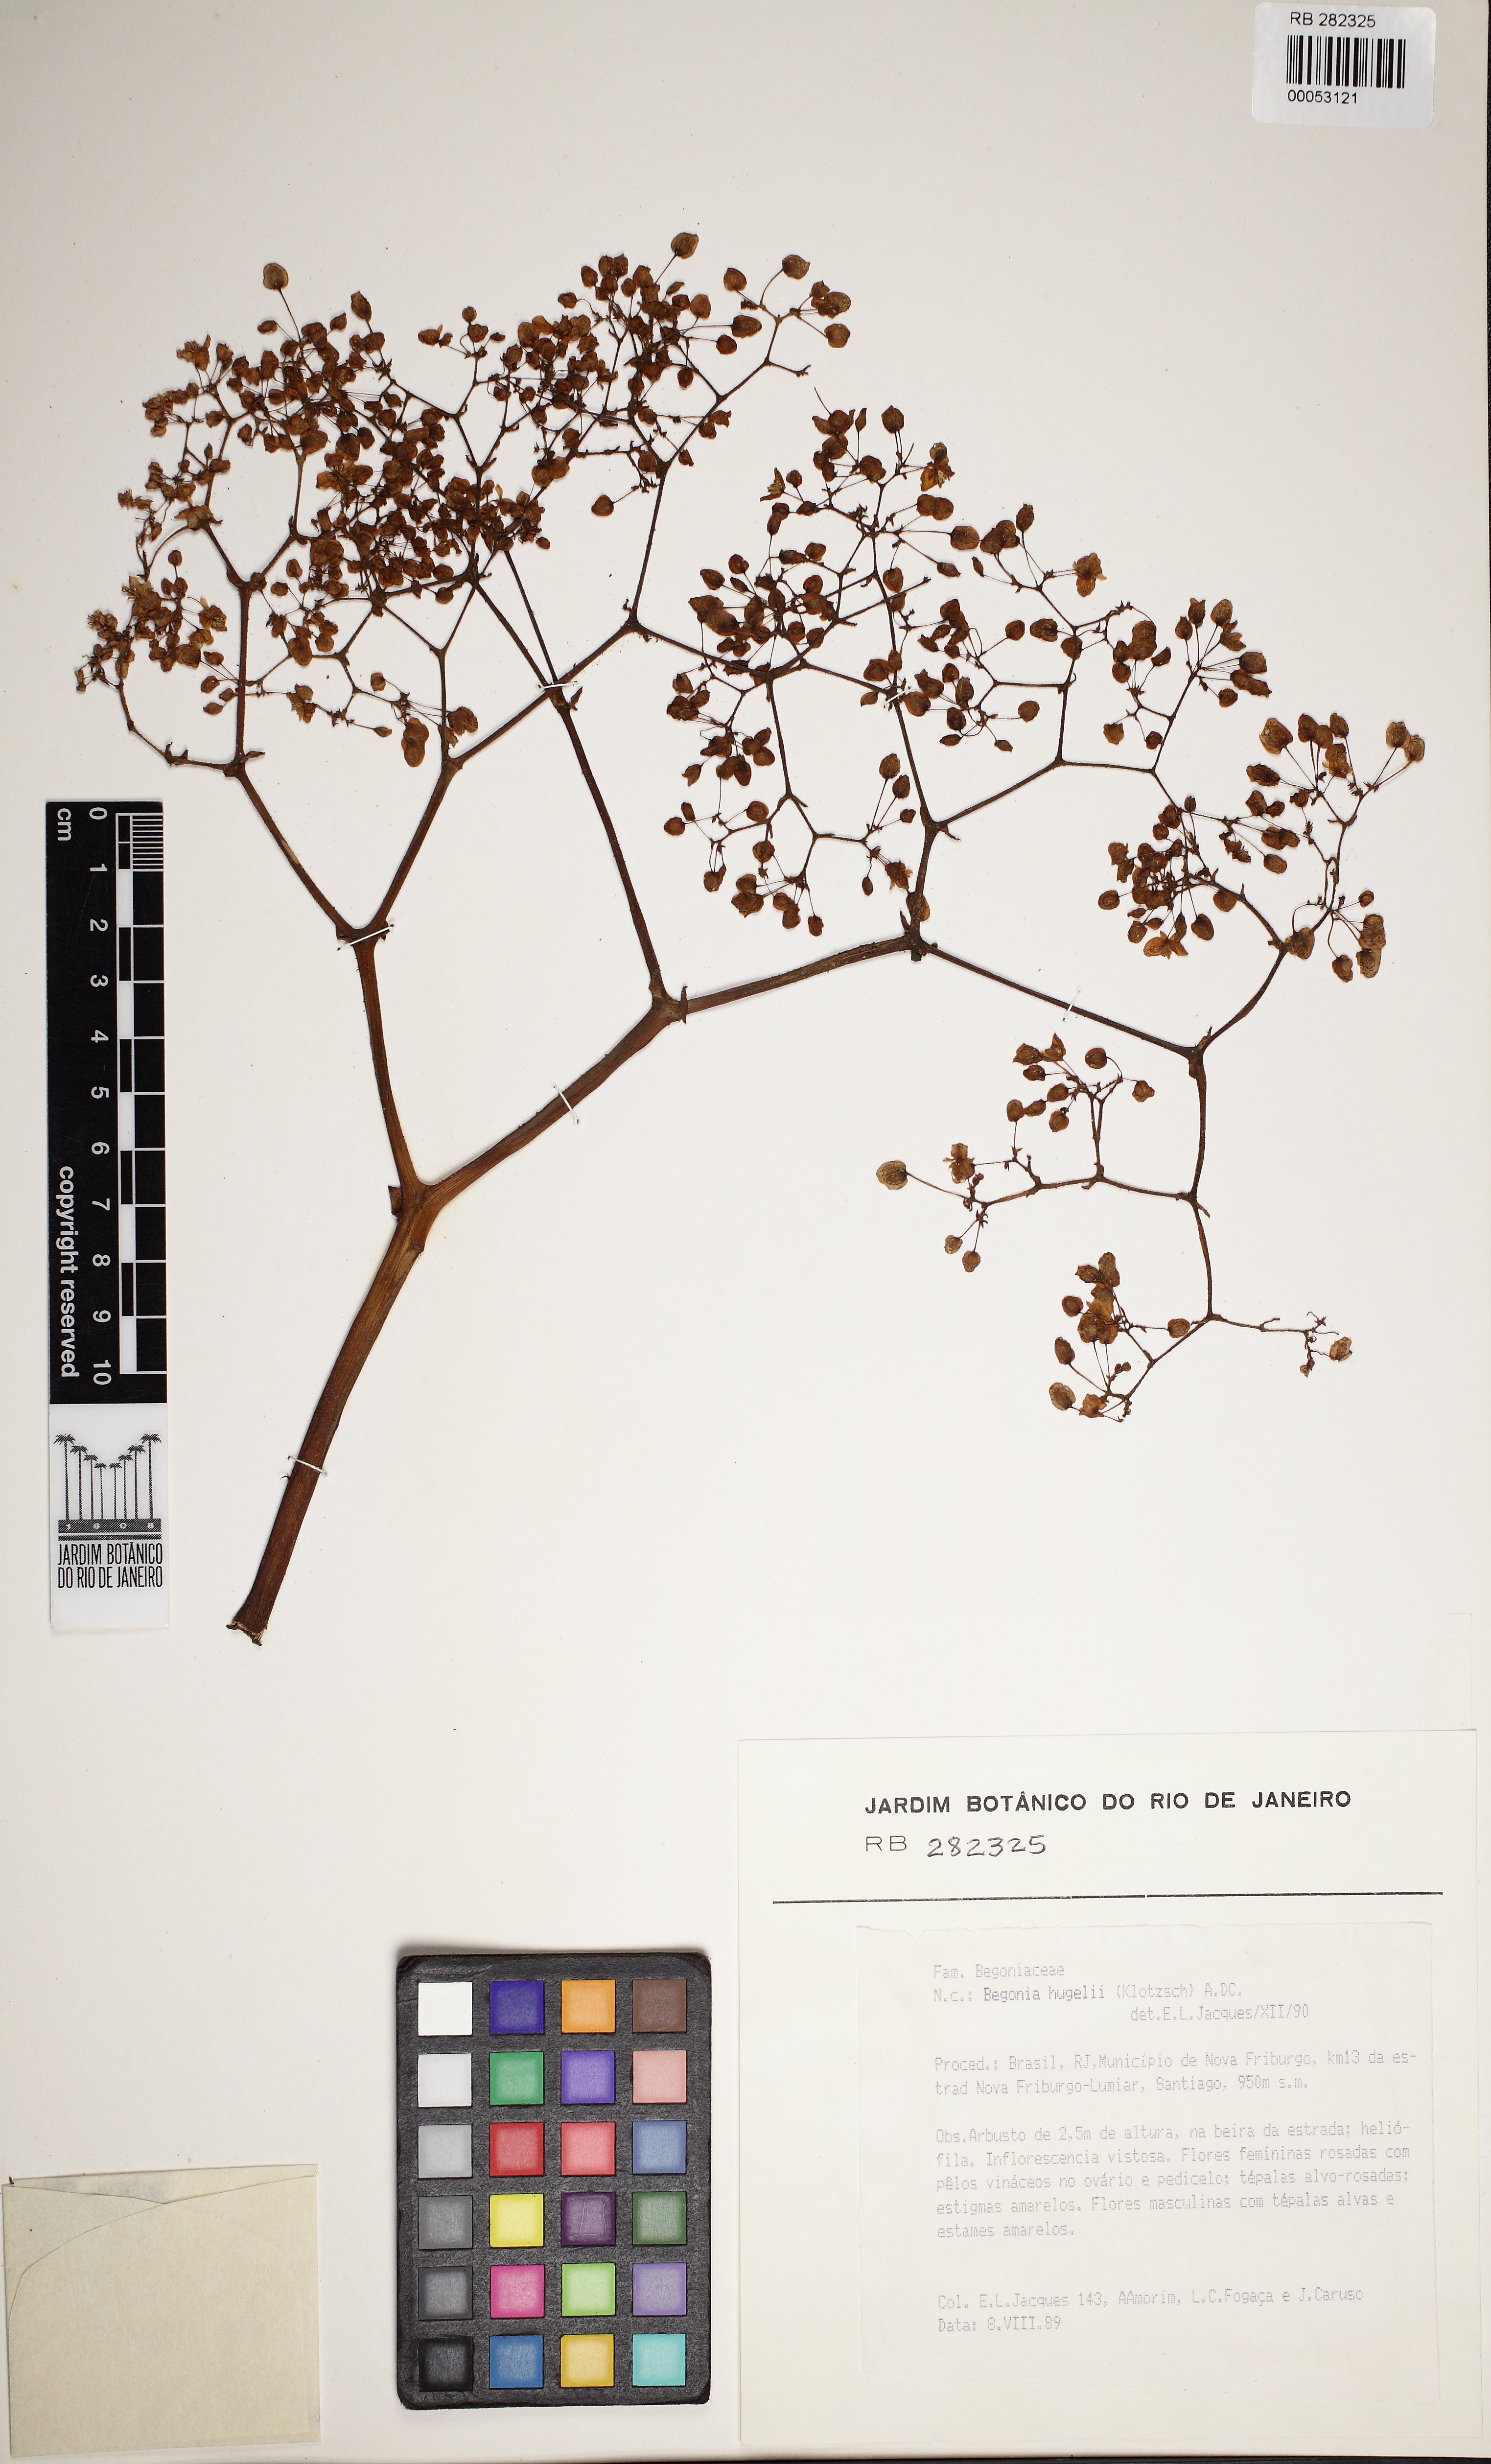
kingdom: Plantae
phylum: Tracheophyta
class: Magnoliopsida
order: Cucurbitales
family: Begoniaceae
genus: Begonia
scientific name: Begonia huegelii
